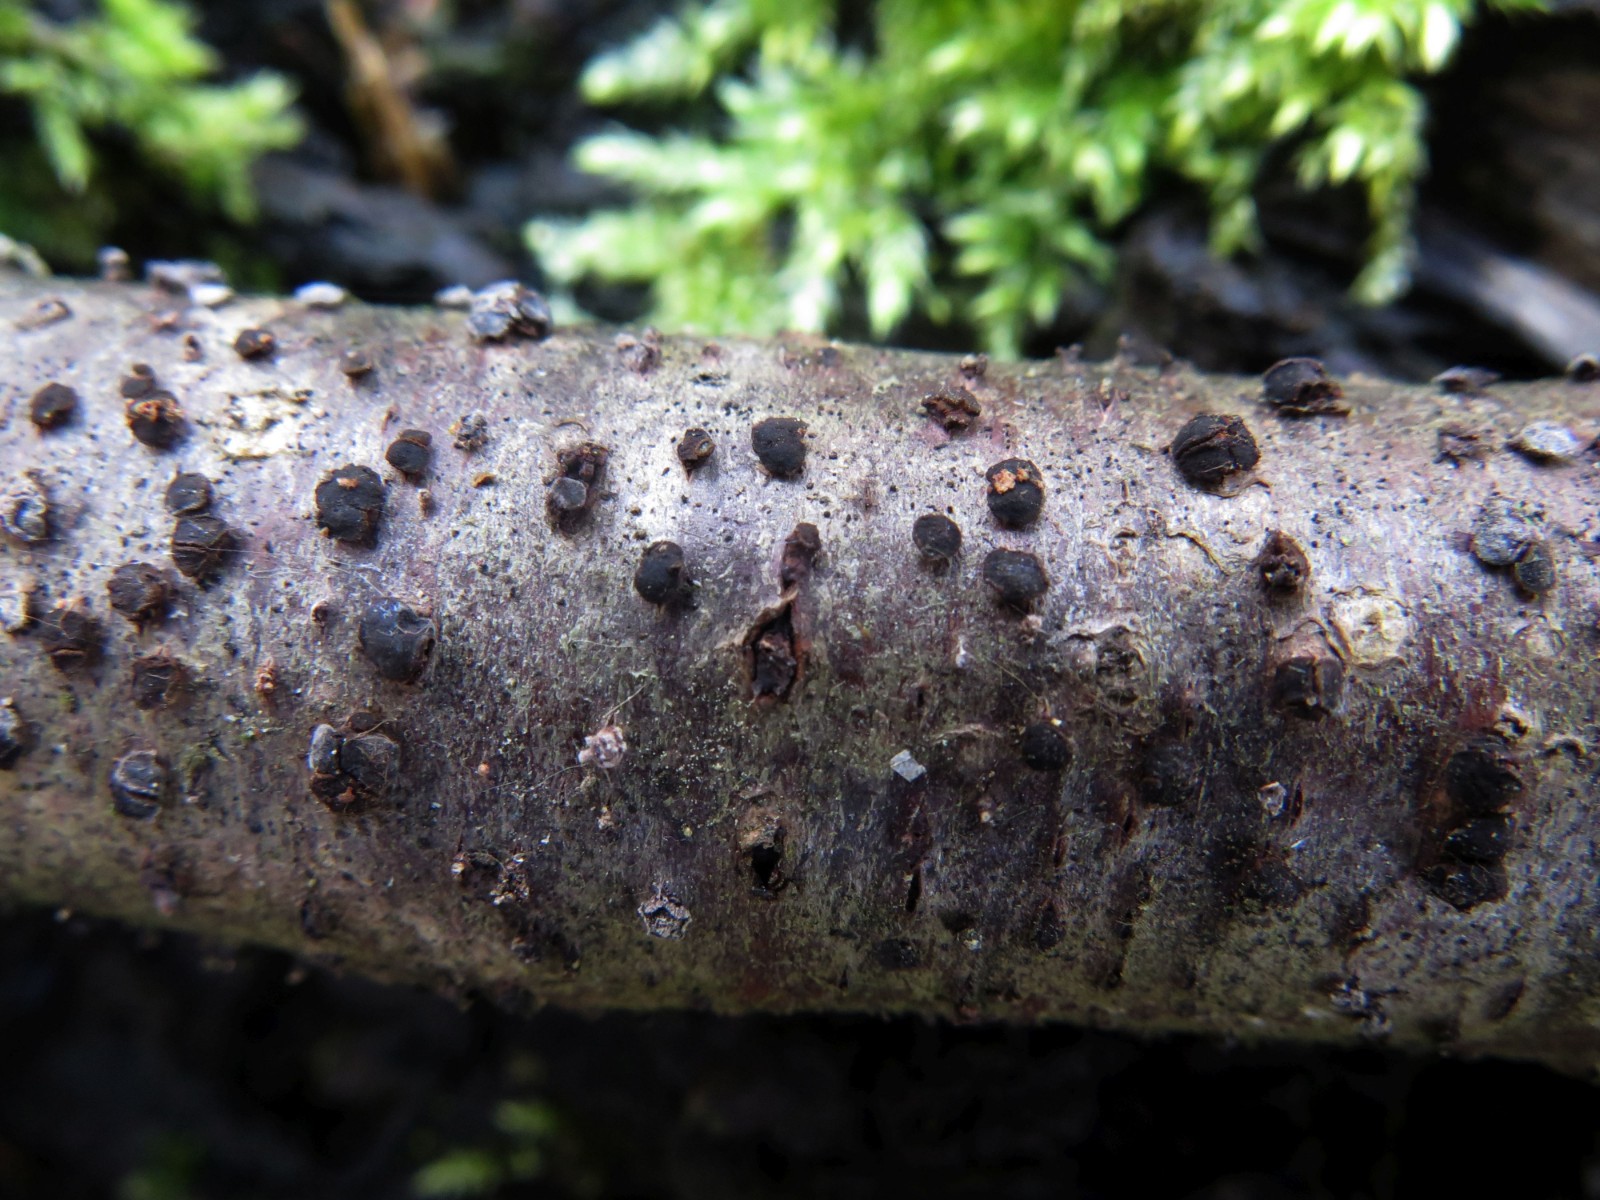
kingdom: Fungi
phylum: Ascomycota
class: Leotiomycetes
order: Helotiales
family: Dermateaceae
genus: Dermea
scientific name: Dermea cerasi
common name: kirsebær-klyngeskive
